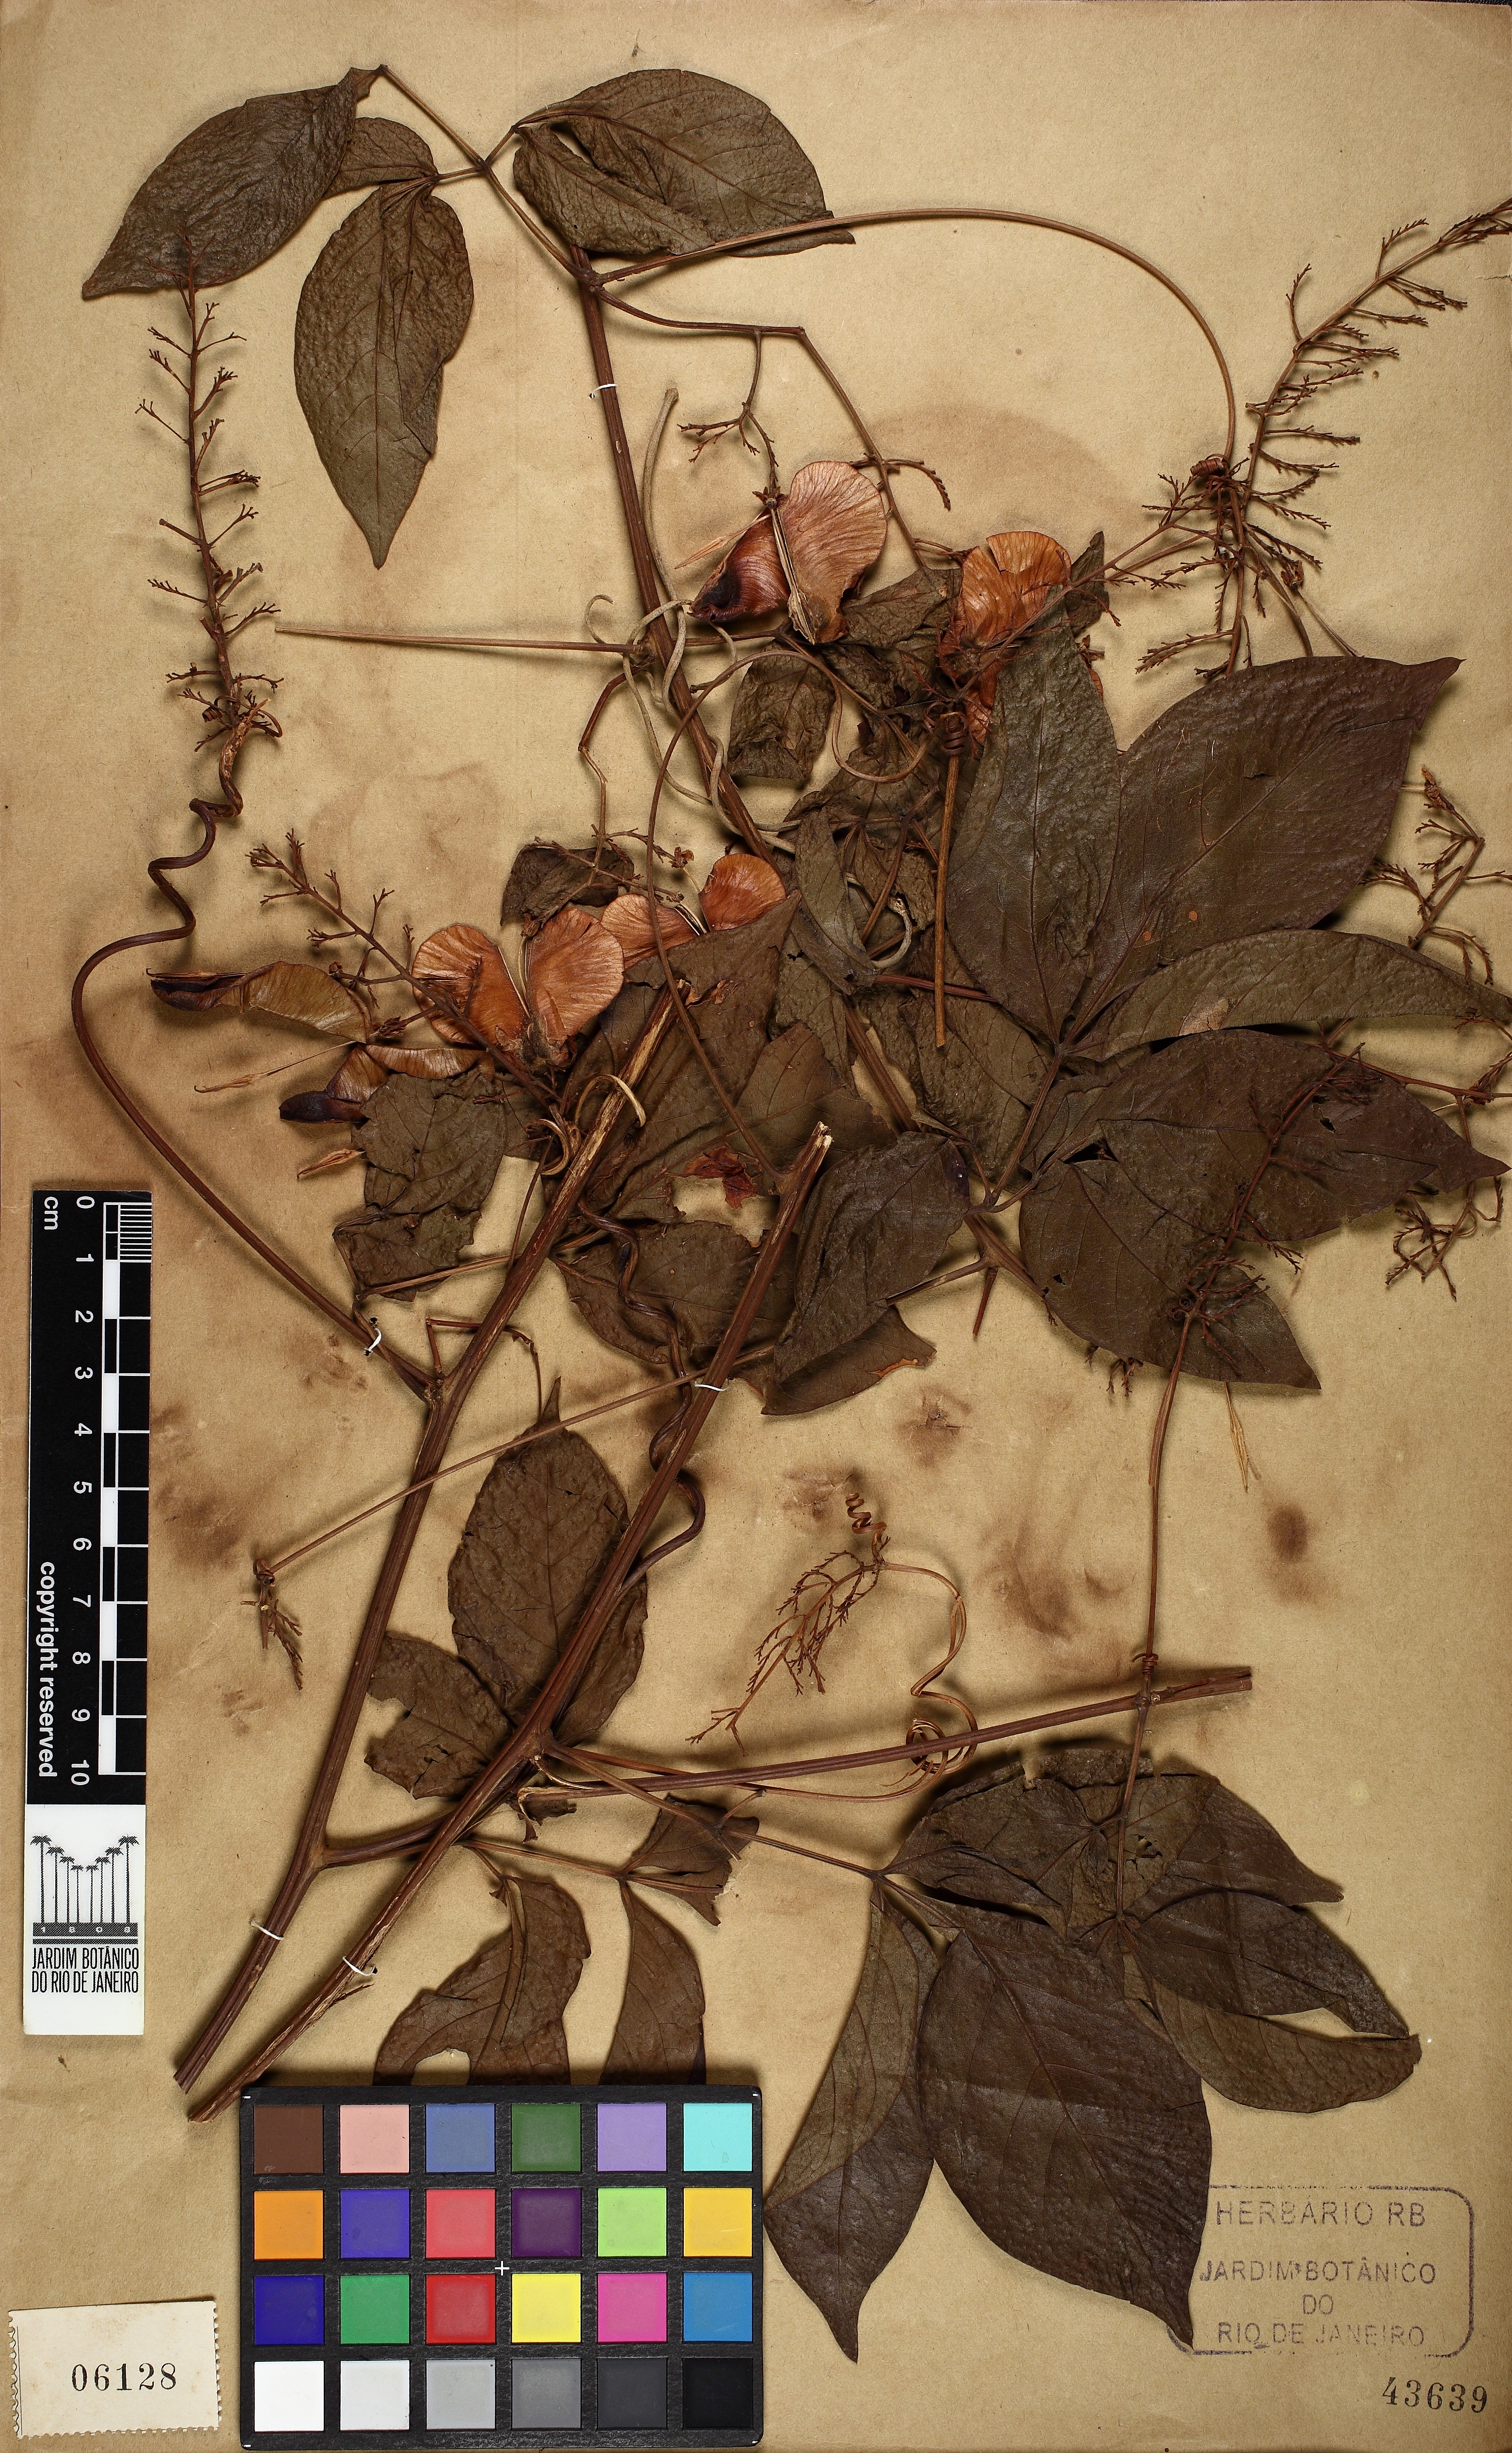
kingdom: Plantae
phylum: Tracheophyta
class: Magnoliopsida
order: Sapindales
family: Sapindaceae
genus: Serjania
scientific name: Serjania corrugata
